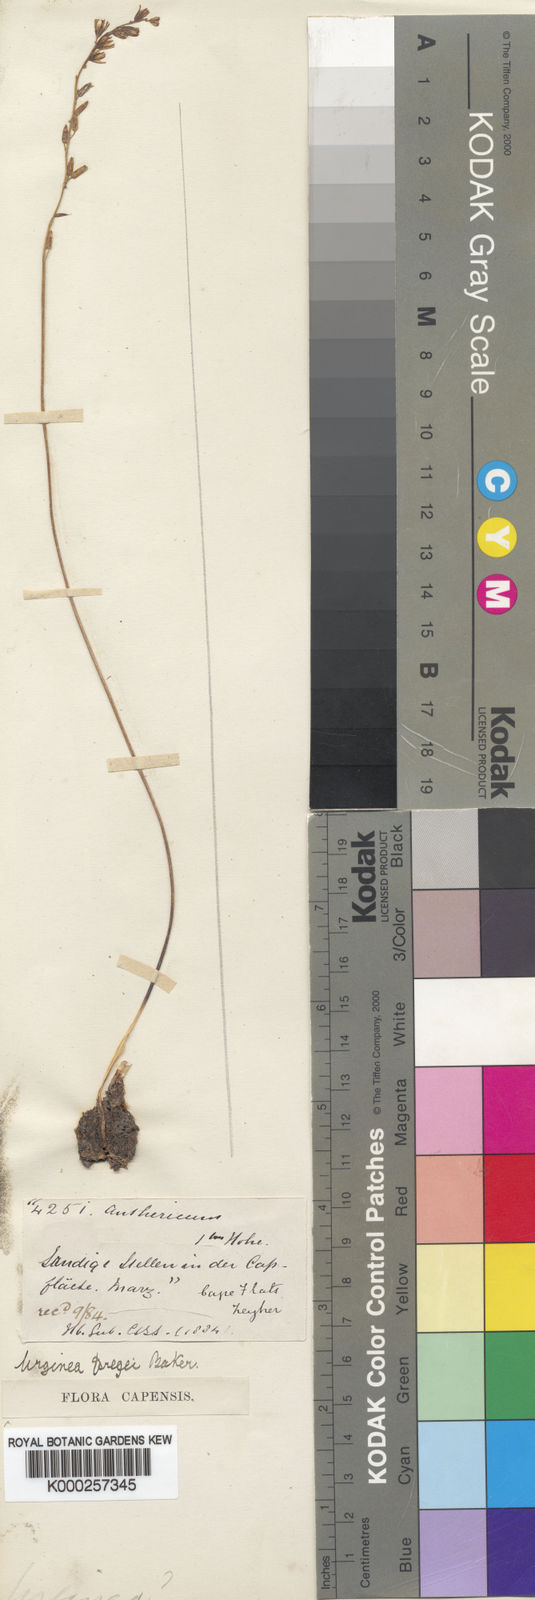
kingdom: Plantae
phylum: Tracheophyta
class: Liliopsida
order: Asparagales
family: Asparagaceae
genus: Drimia
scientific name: Drimia dregei
